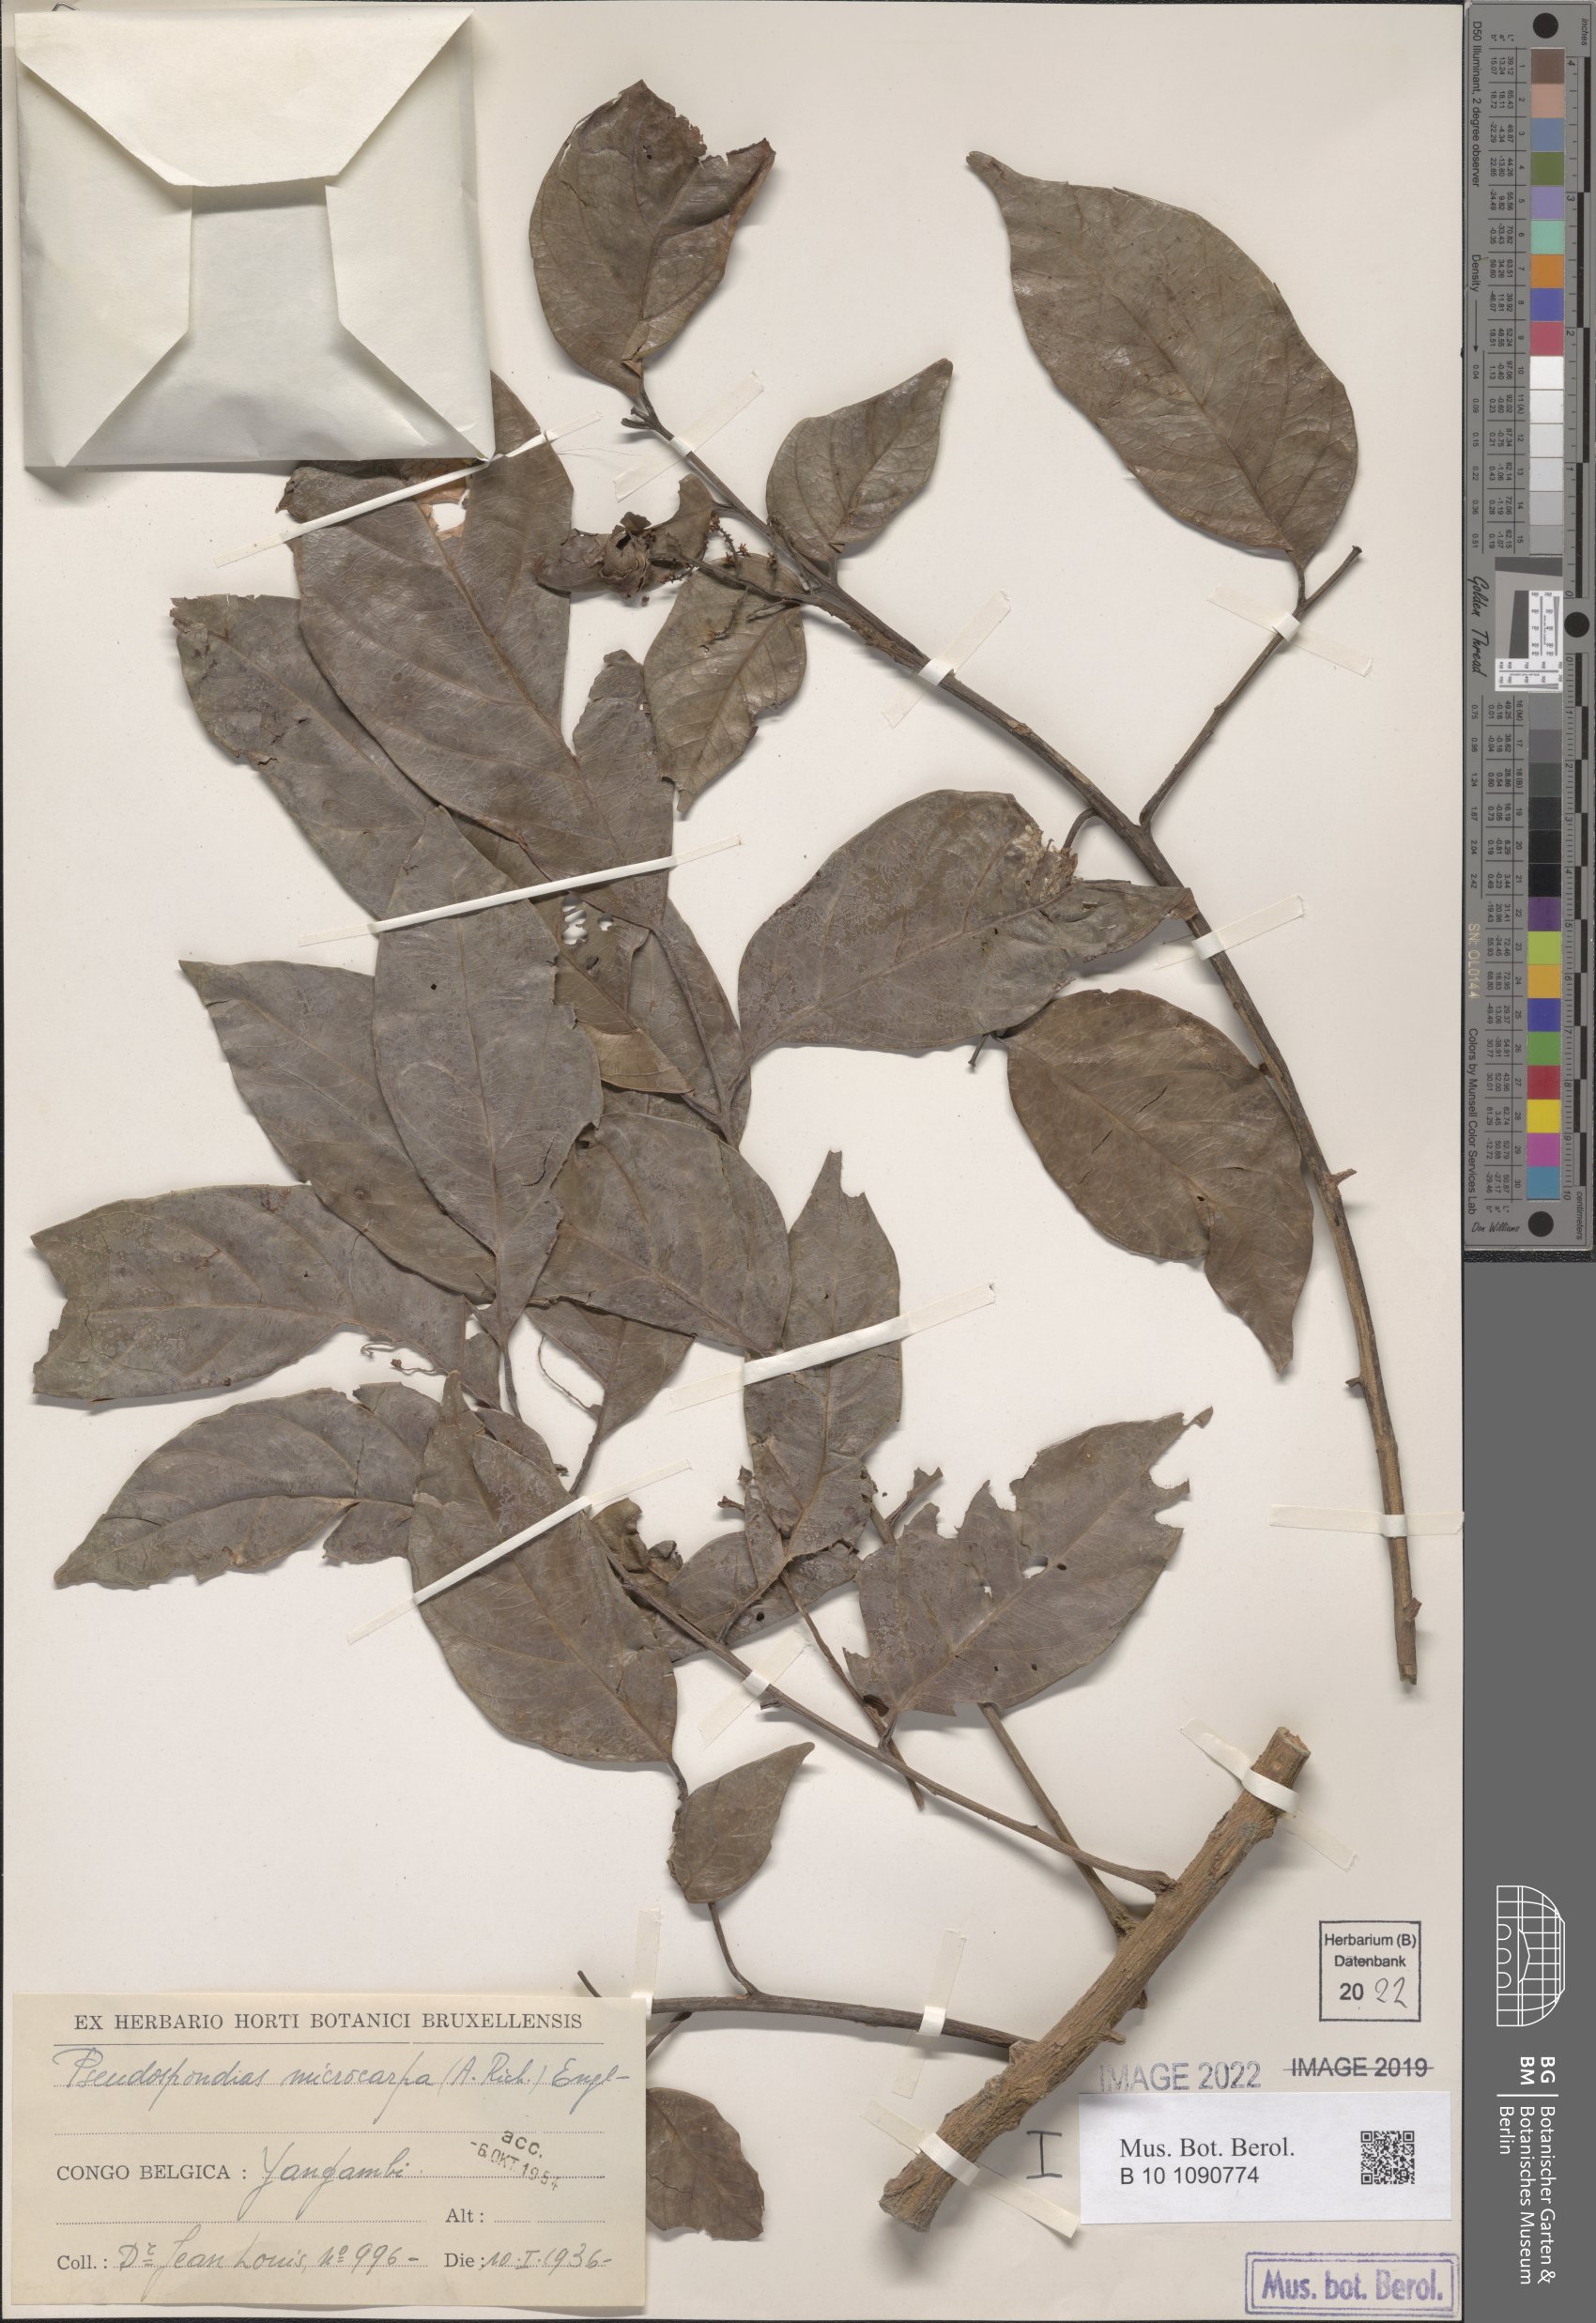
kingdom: Plantae
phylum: Tracheophyta
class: Magnoliopsida
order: Sapindales
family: Anacardiaceae
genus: Pseudospondias
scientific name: Pseudospondias microcarpa
